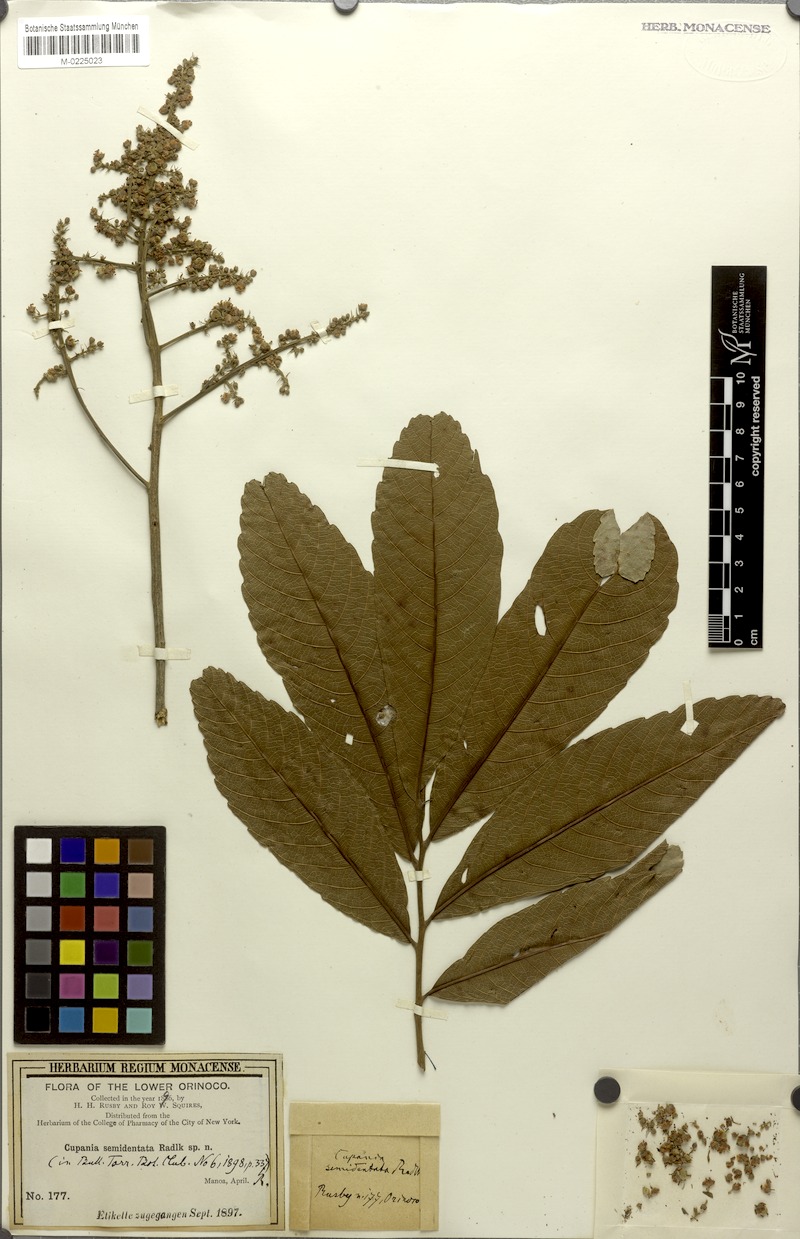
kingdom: Plantae
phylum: Tracheophyta
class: Magnoliopsida
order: Sapindales
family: Sapindaceae
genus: Cupania
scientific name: Cupania latifolia
